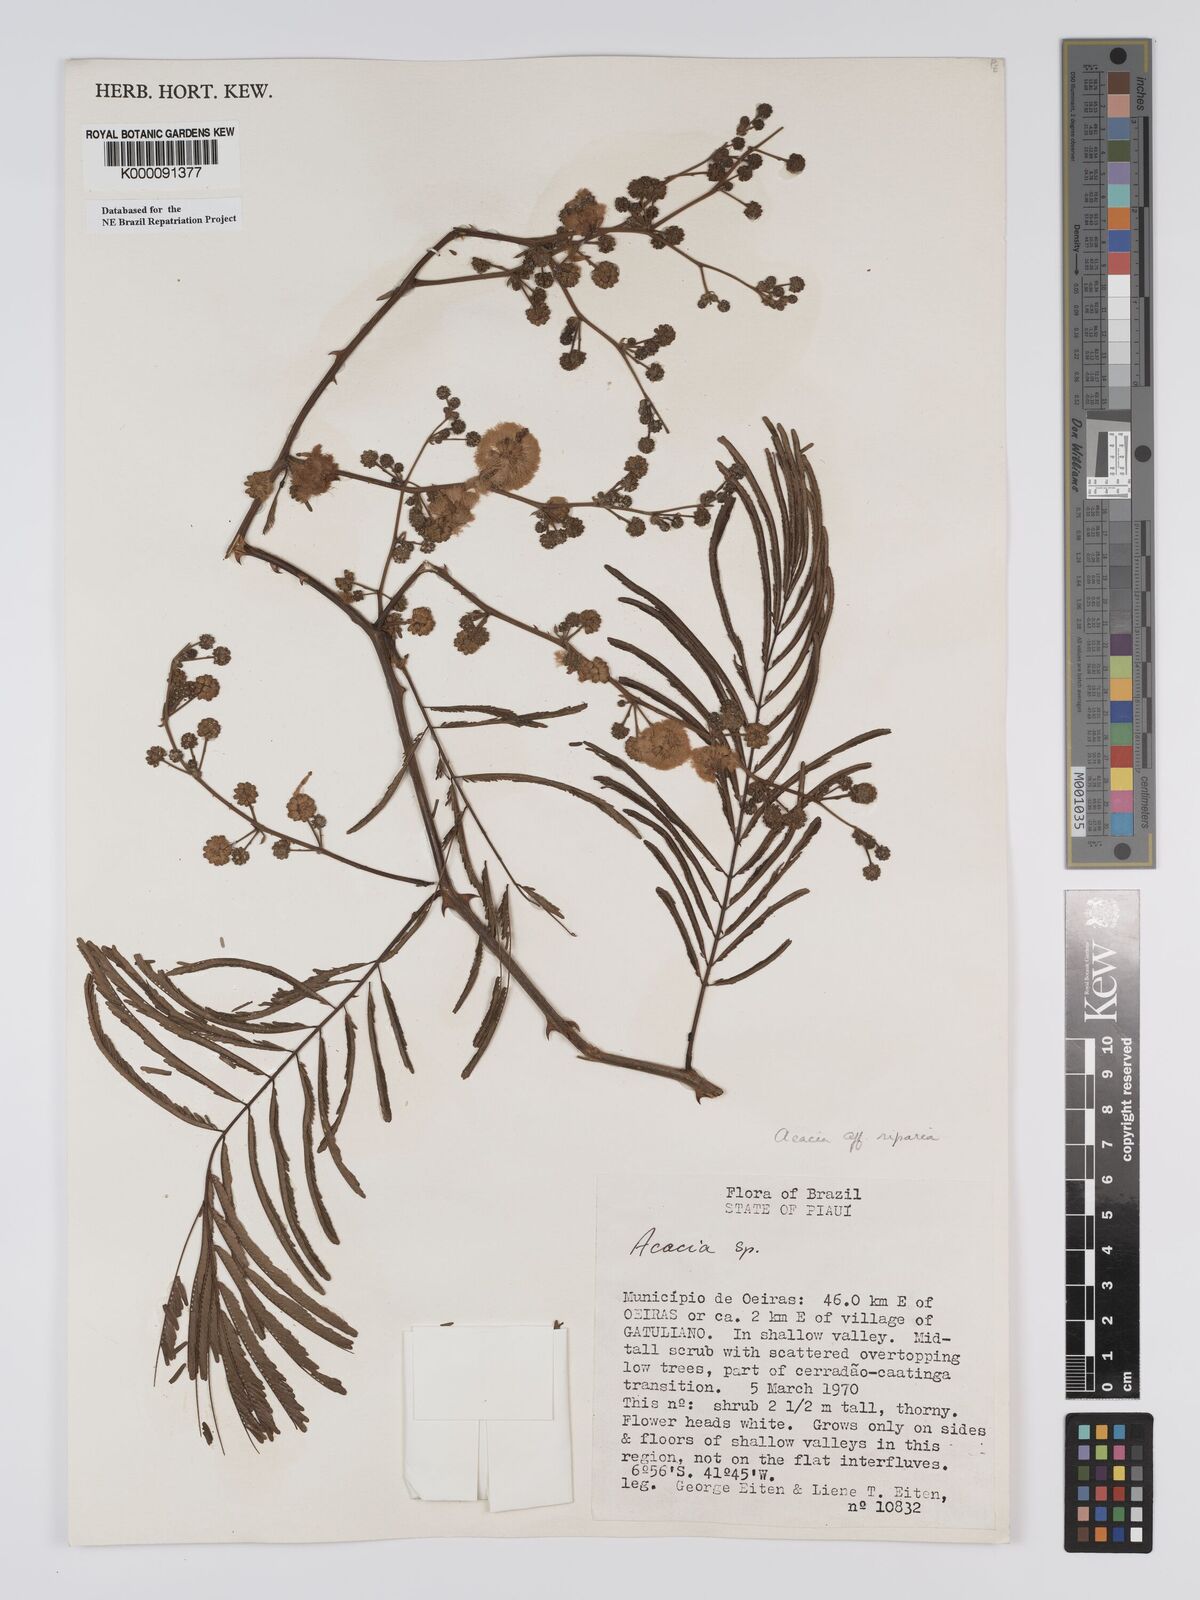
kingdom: Plantae
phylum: Tracheophyta
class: Magnoliopsida
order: Fabales
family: Fabaceae
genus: Senegalia
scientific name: Senegalia riparia
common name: Catch-and-keep
